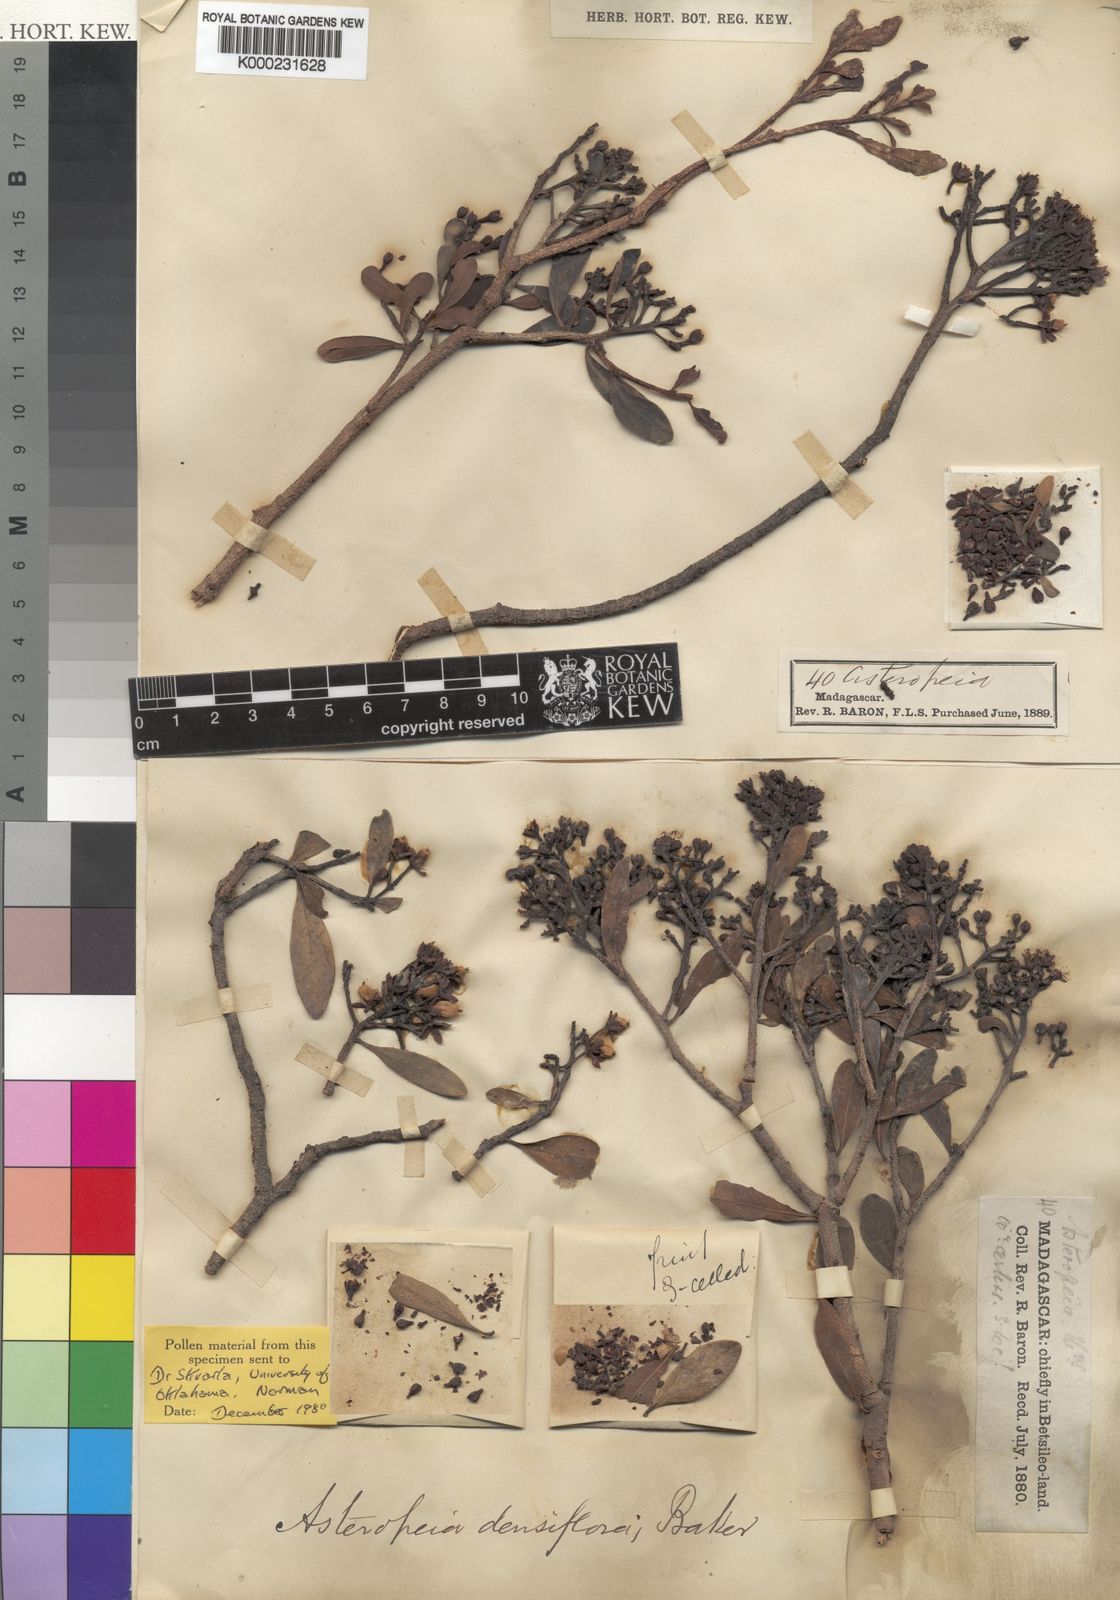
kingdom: Plantae
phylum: Tracheophyta
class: Magnoliopsida
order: Caryophyllales
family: Asteropeiaceae
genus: Asteropeia
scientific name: Asteropeia densiflora
